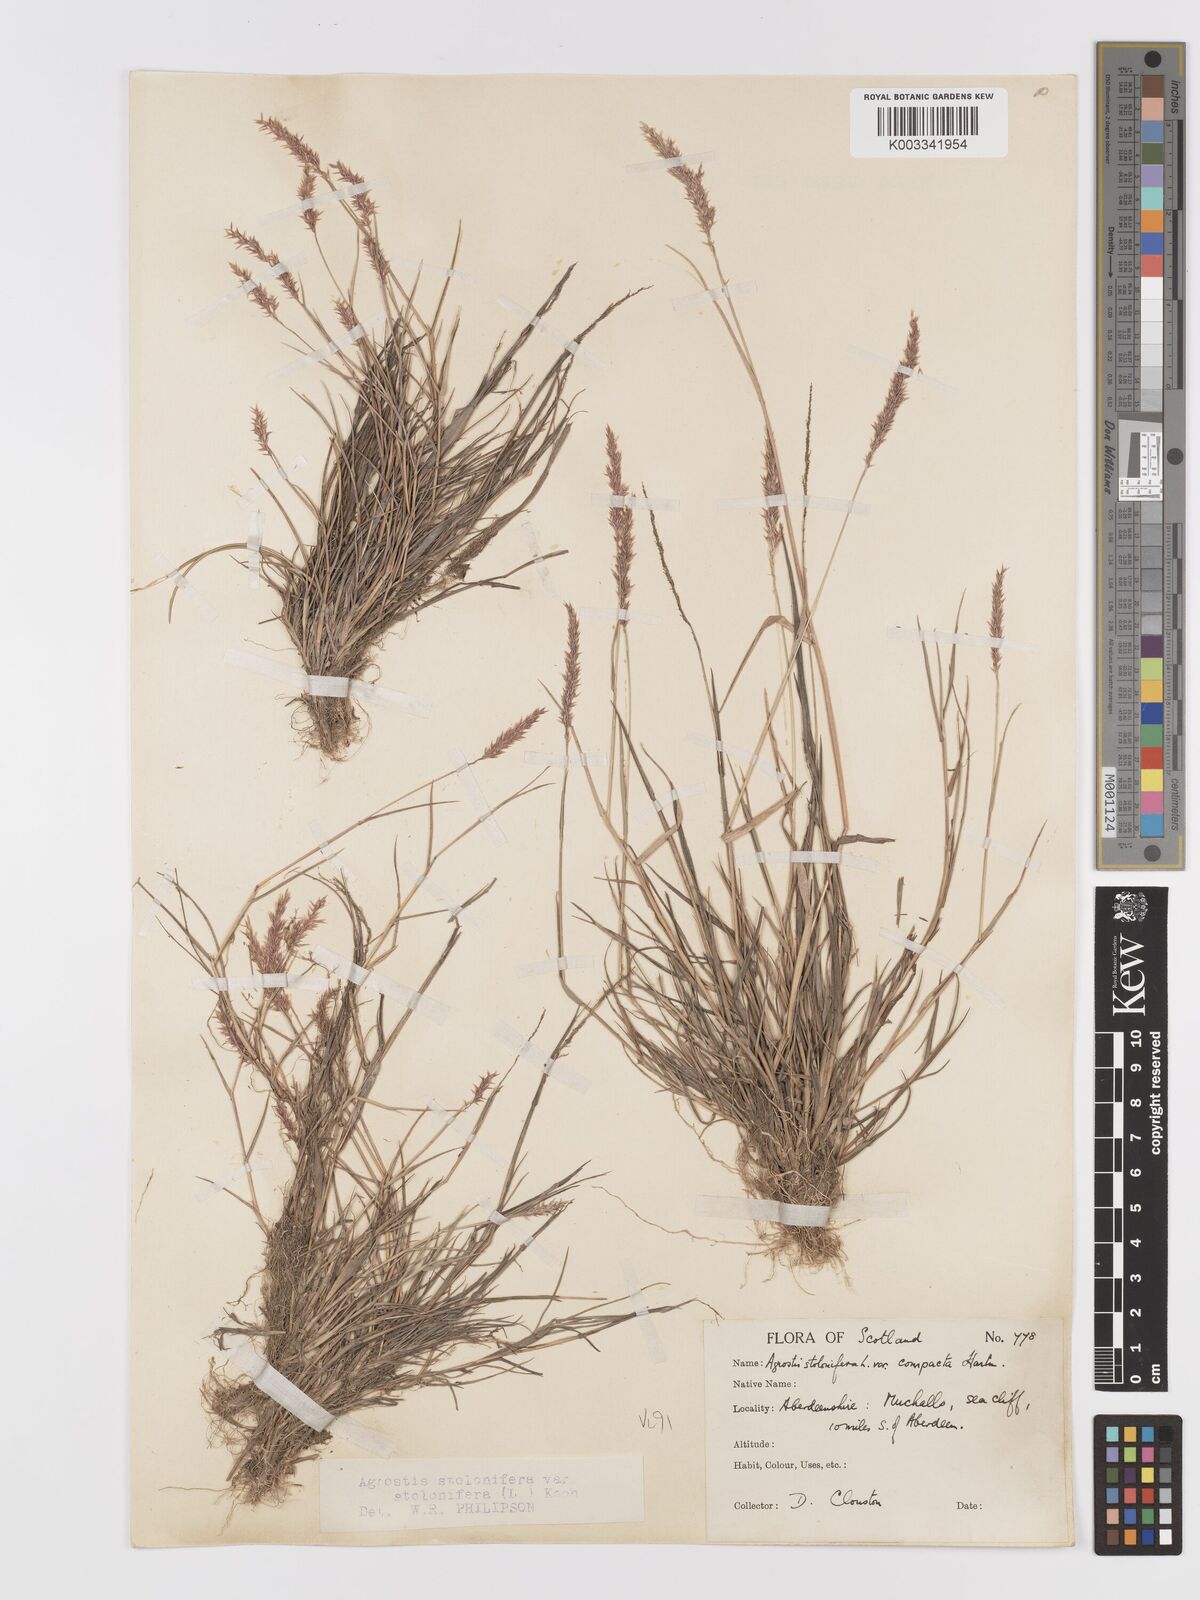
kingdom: Plantae
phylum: Tracheophyta
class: Liliopsida
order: Poales
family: Poaceae
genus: Agrostis
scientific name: Agrostis stolonifera
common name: Creeping bentgrass
